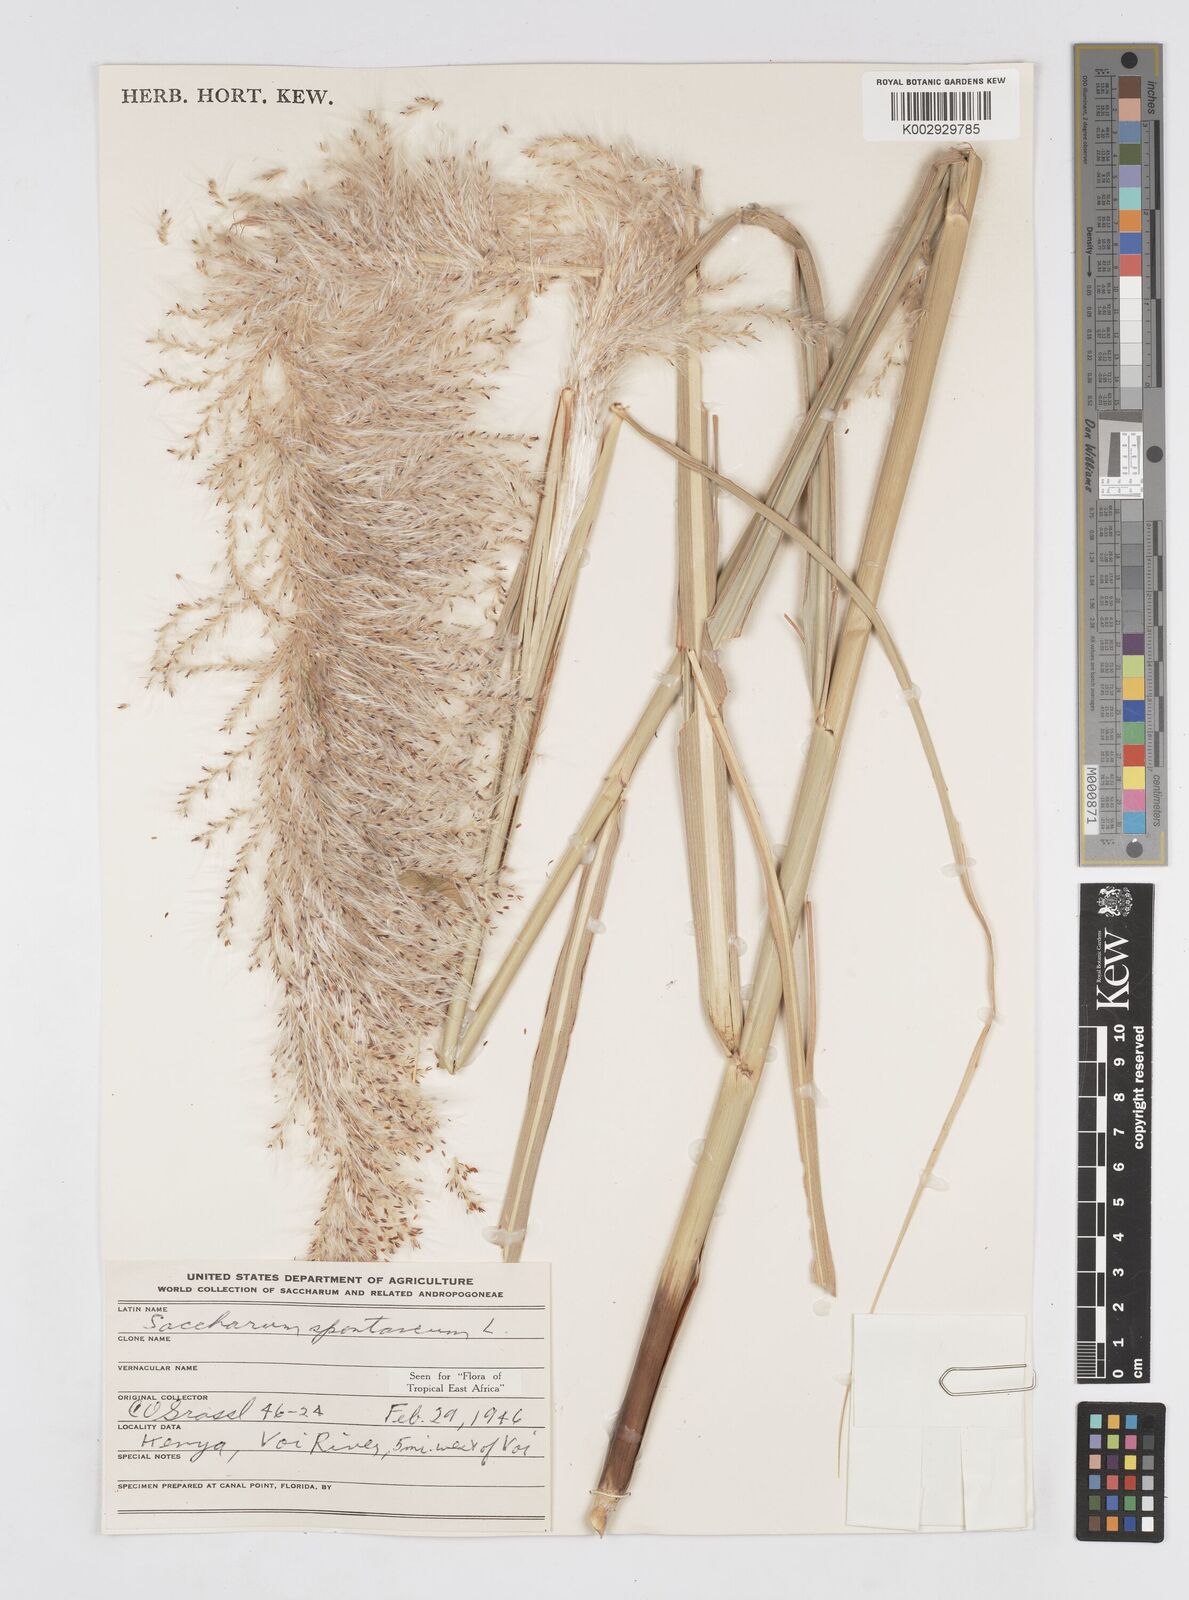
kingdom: Plantae
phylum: Tracheophyta
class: Liliopsida
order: Poales
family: Poaceae
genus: Saccharum
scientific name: Saccharum spontaneum
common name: Wild sugarcane
